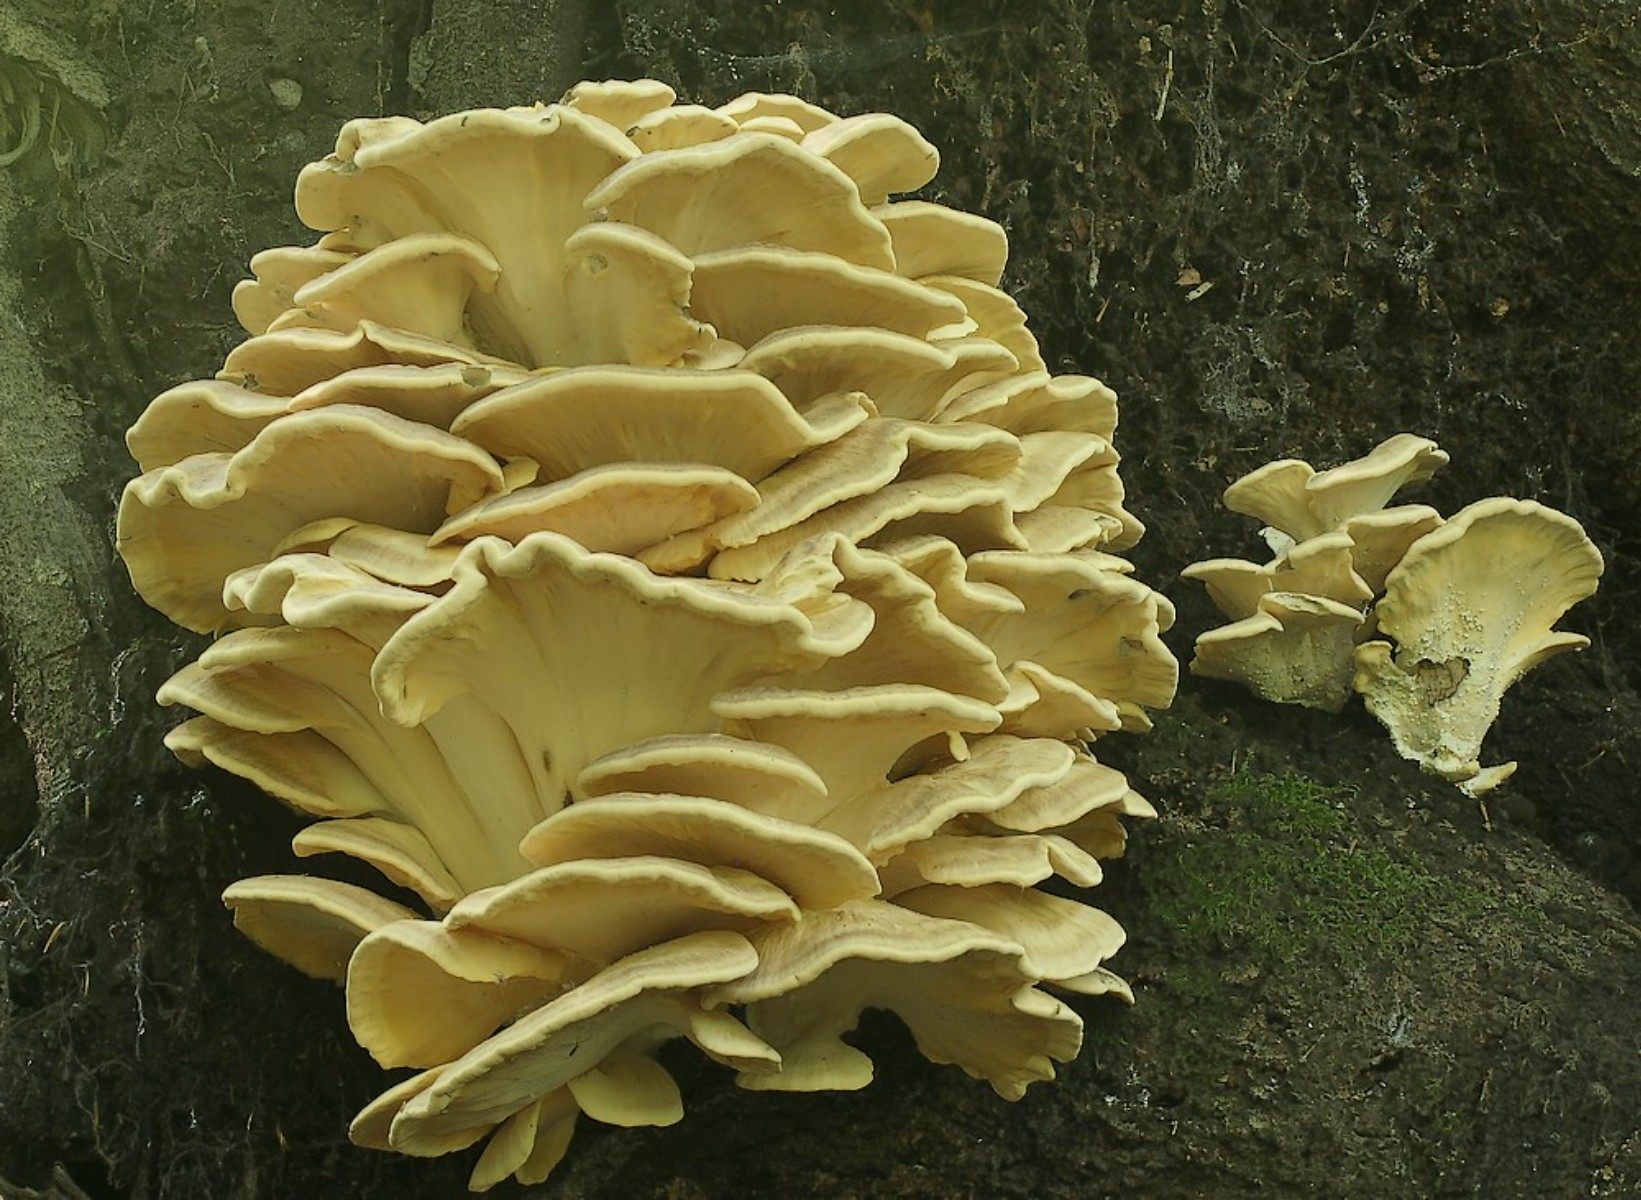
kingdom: Fungi
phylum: Basidiomycota
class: Agaricomycetes
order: Polyporales
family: Meripilaceae
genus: Meripilus
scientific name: Meripilus giganteus
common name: kæmpeporesvamp
